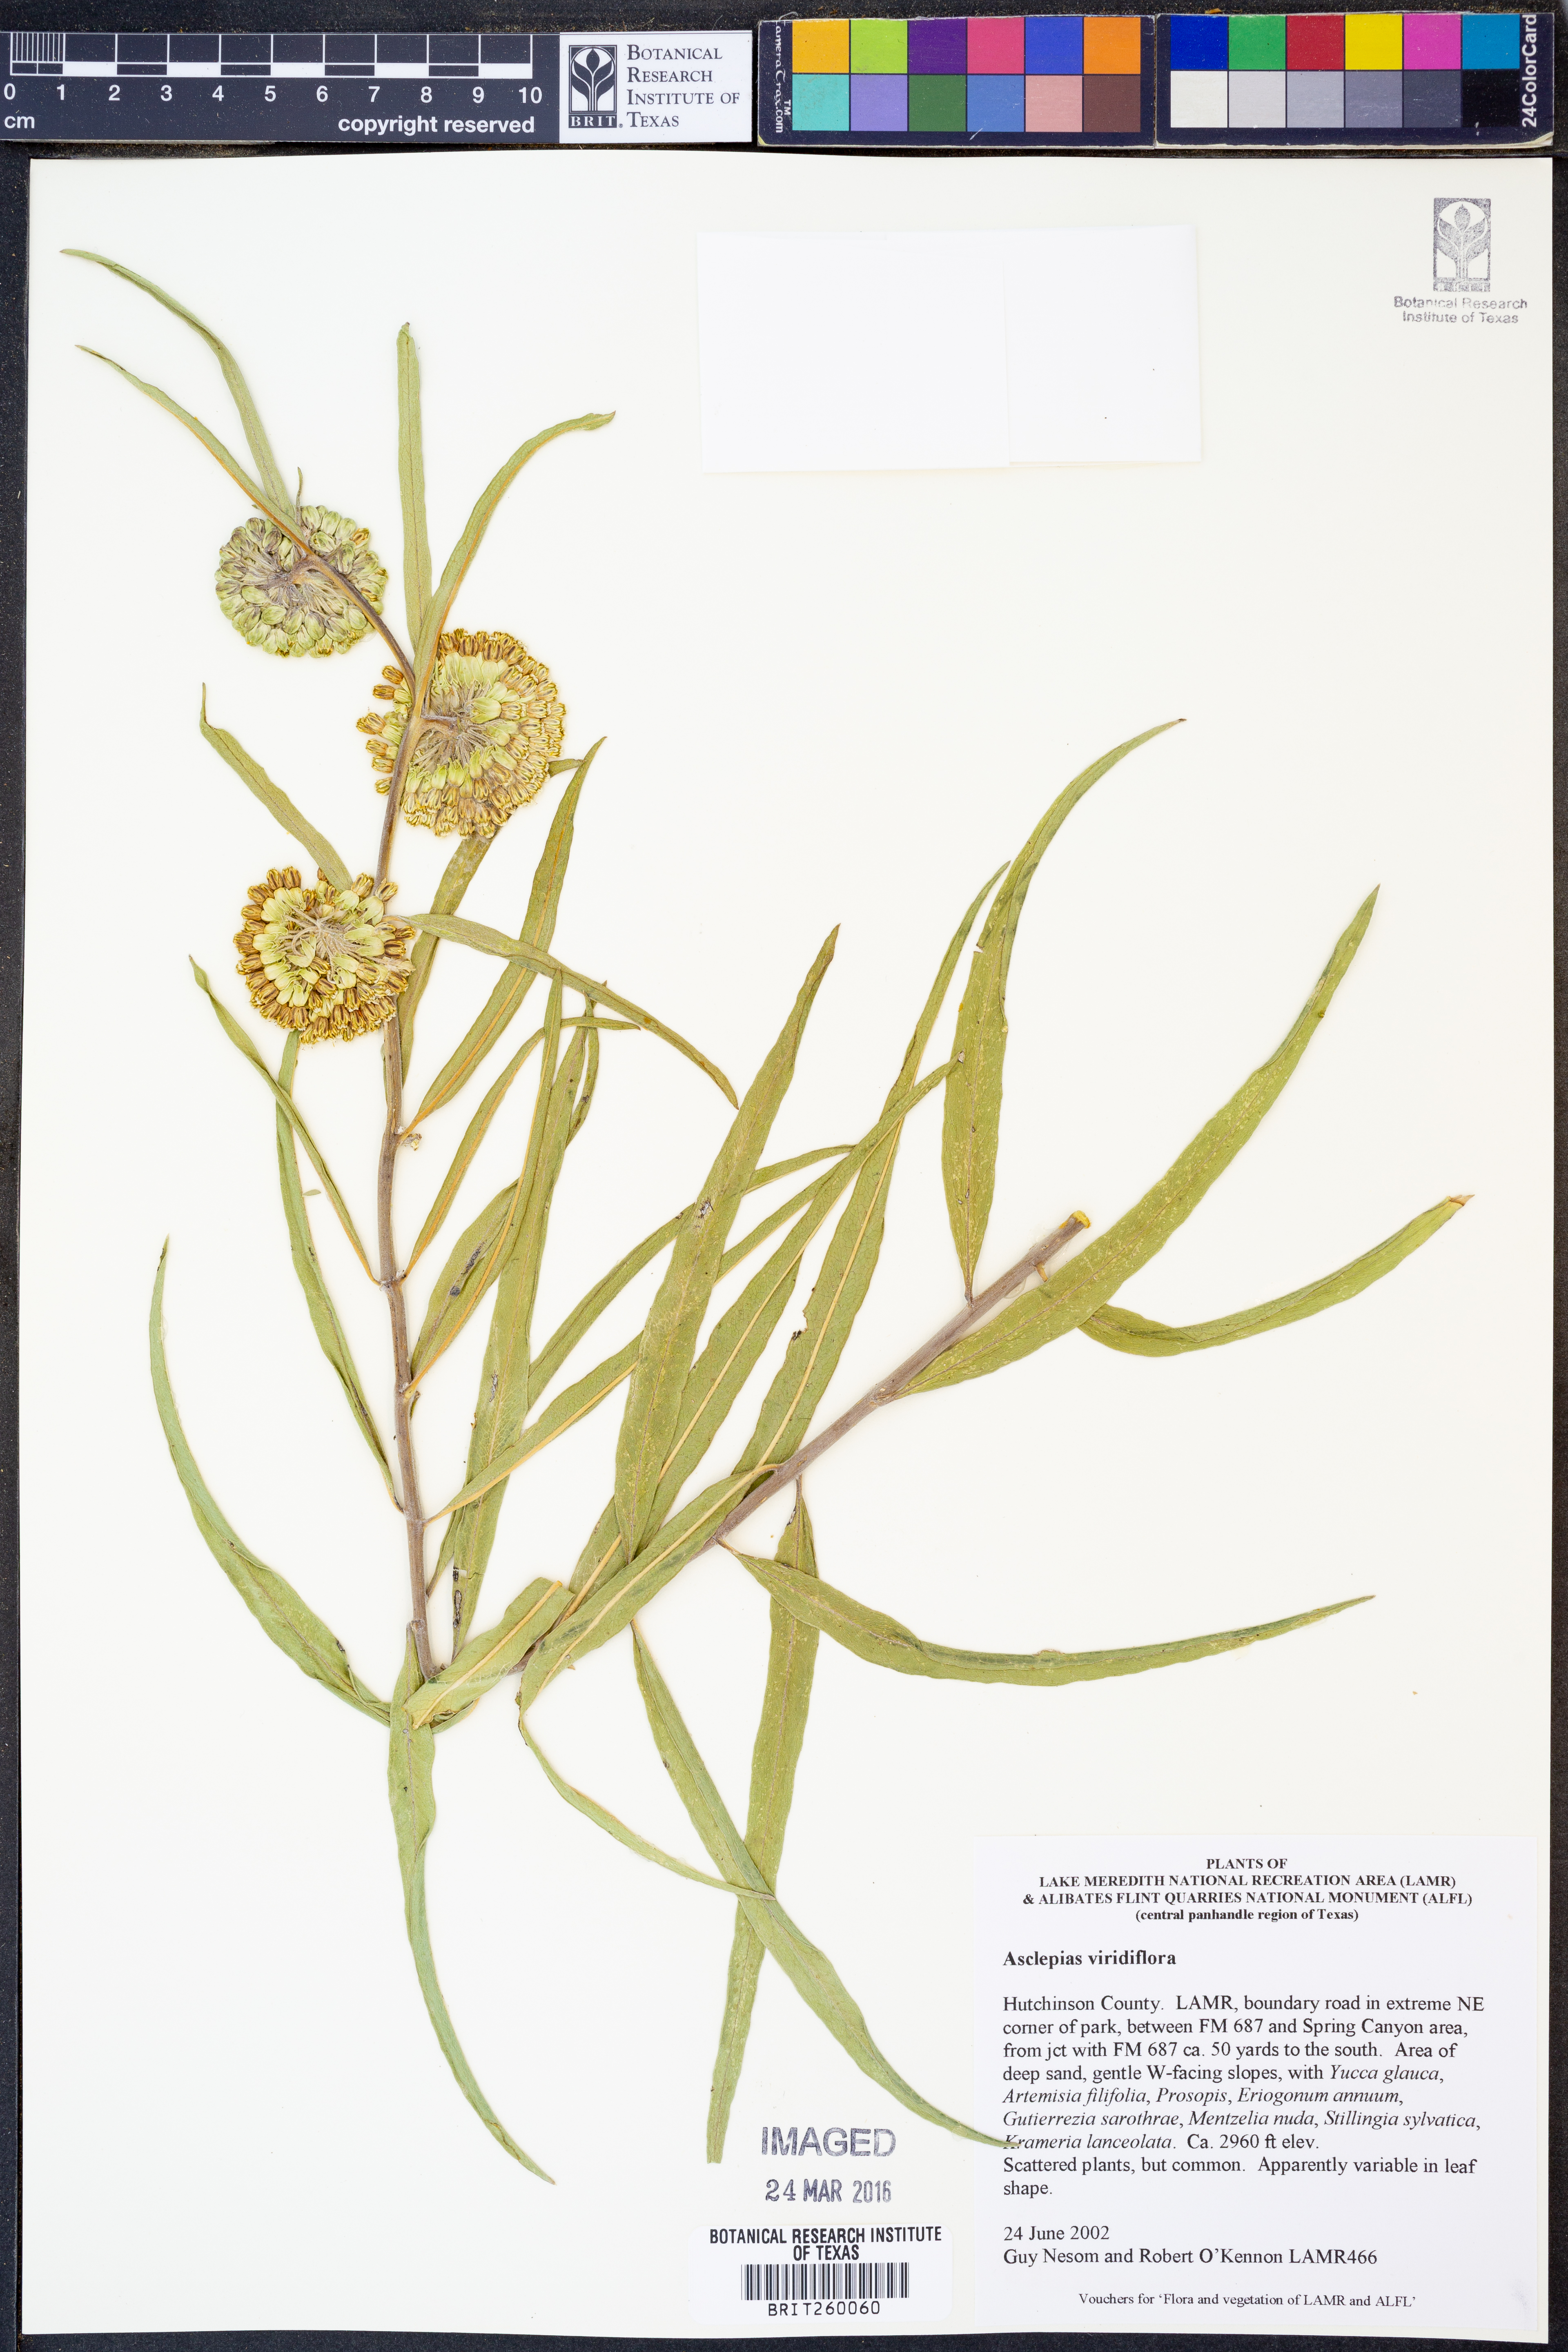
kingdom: Plantae
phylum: Tracheophyta
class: Magnoliopsida
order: Gentianales
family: Apocynaceae
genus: Asclepias
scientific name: Asclepias viridiflora
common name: Green comet milkweed
